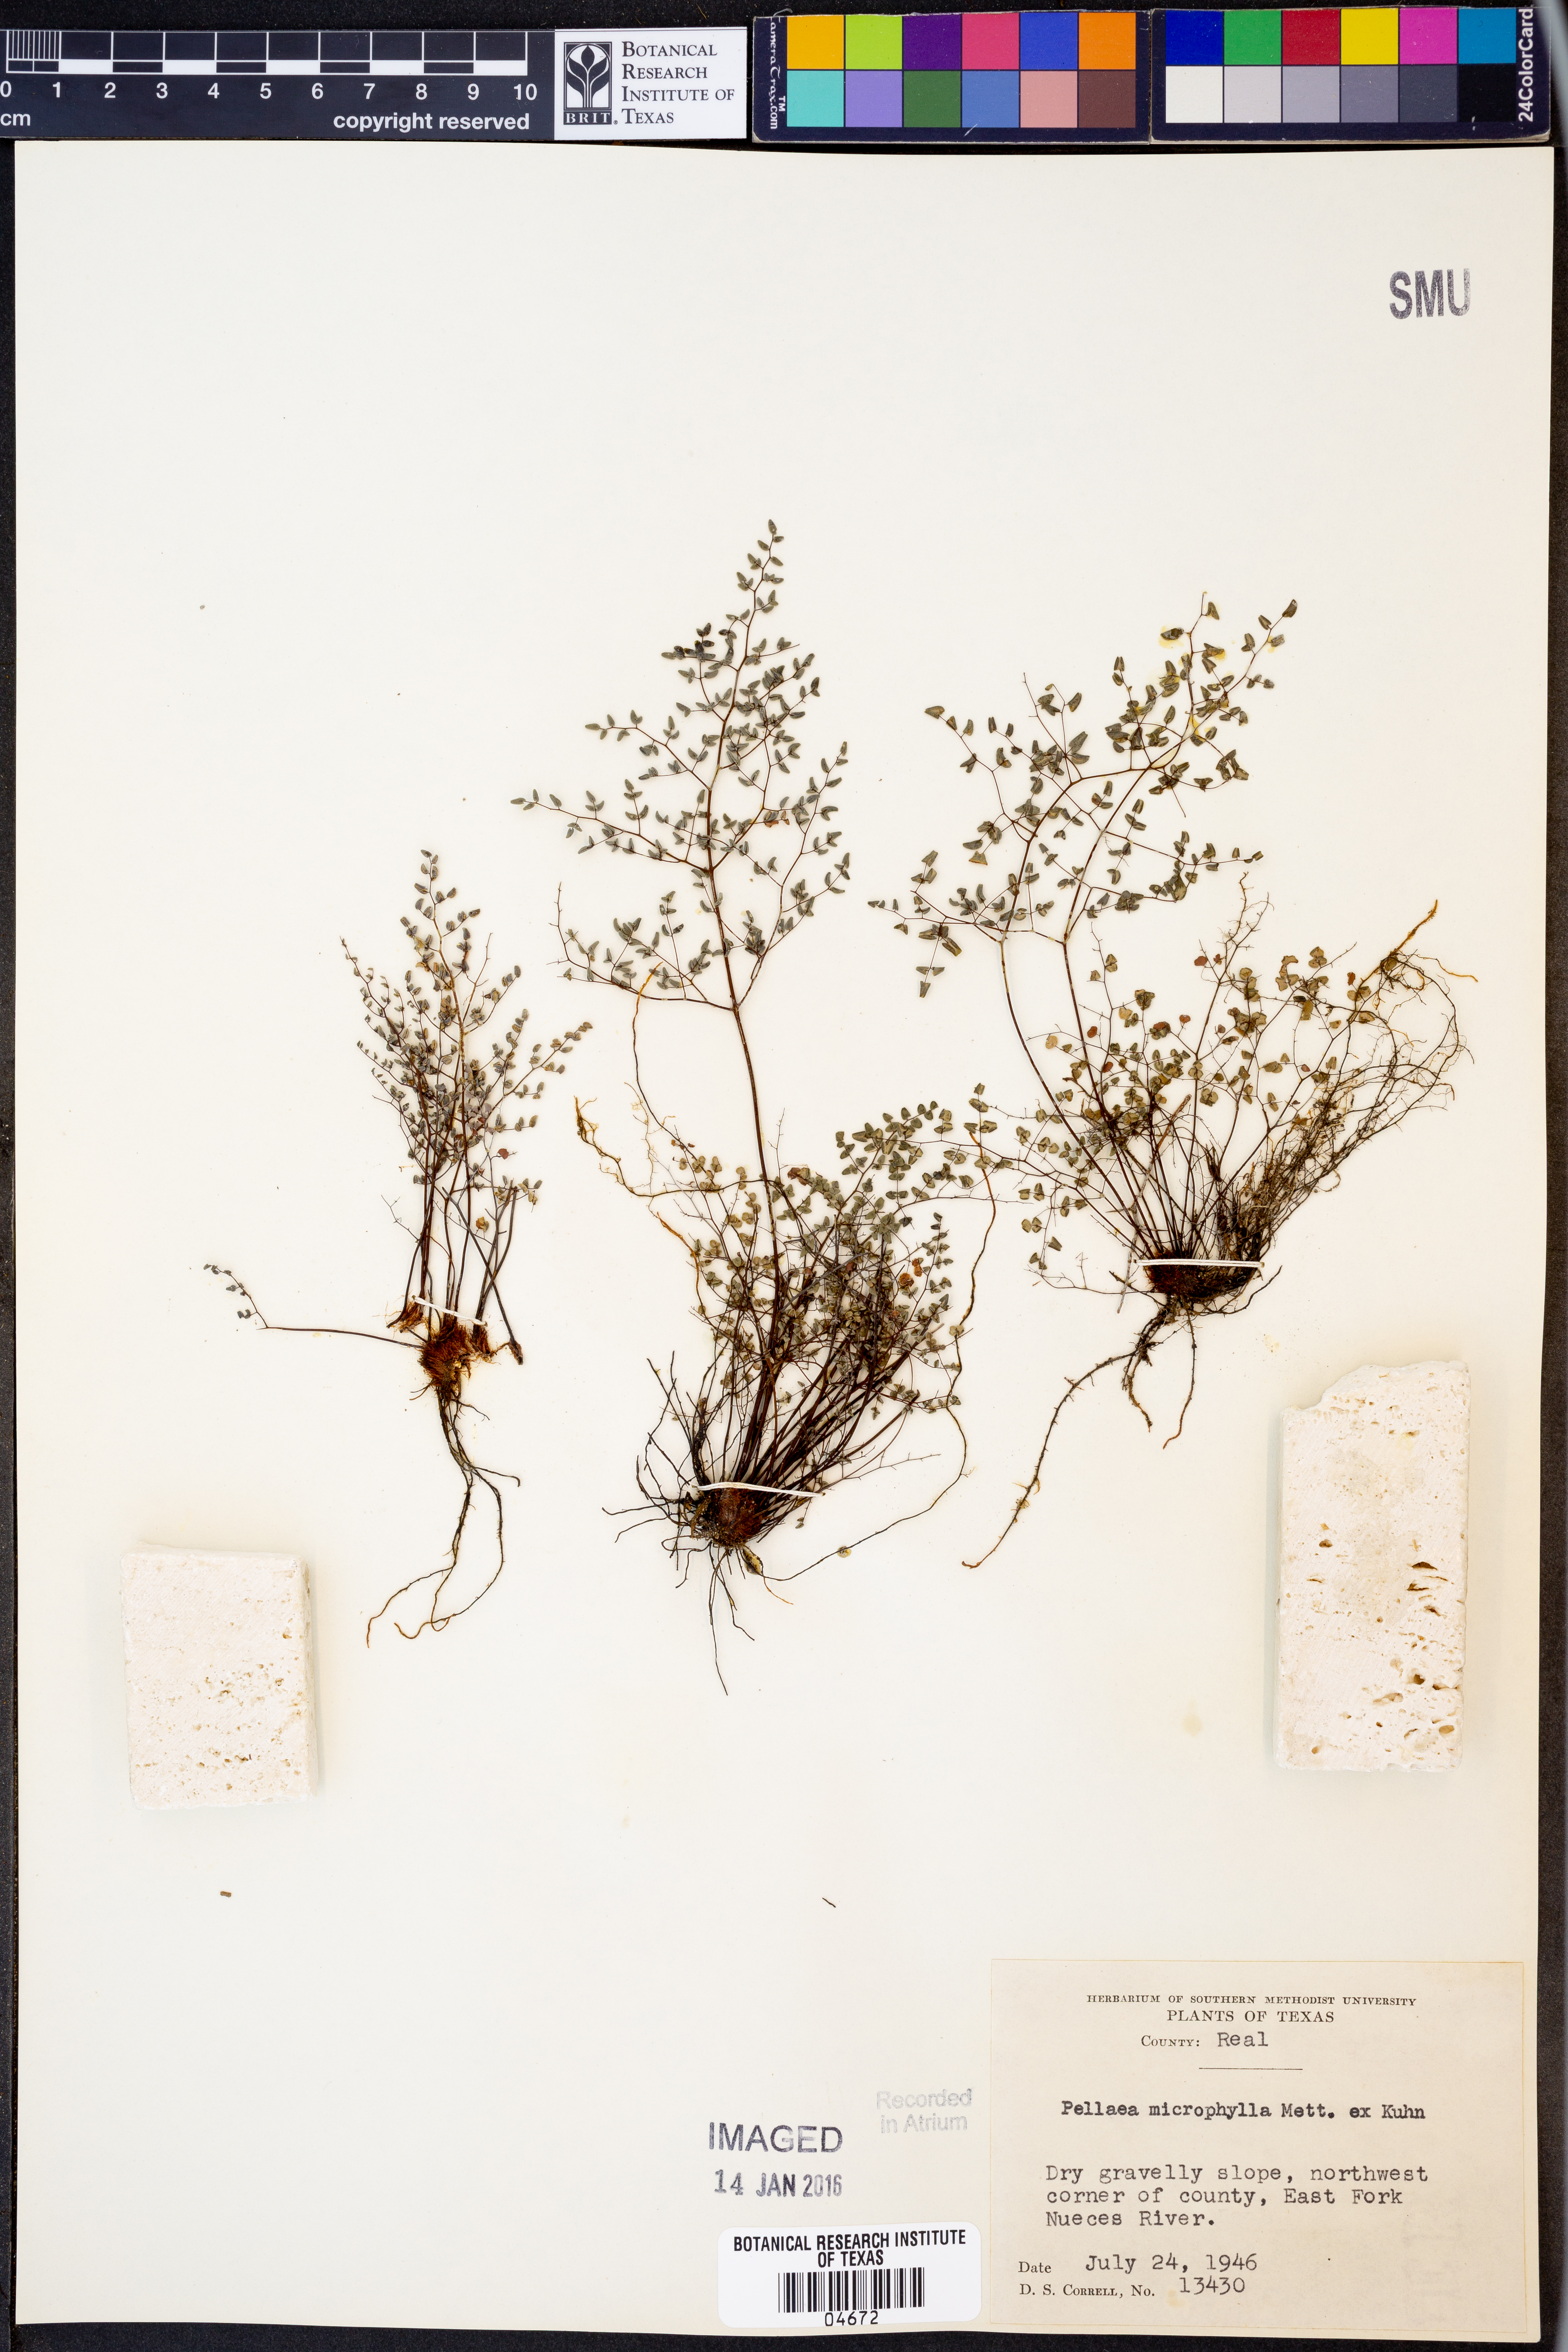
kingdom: Plantae
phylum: Tracheophyta
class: Polypodiopsida
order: Polypodiales
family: Pteridaceae
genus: Lytoneuron
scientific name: Lytoneuron microphyllum
